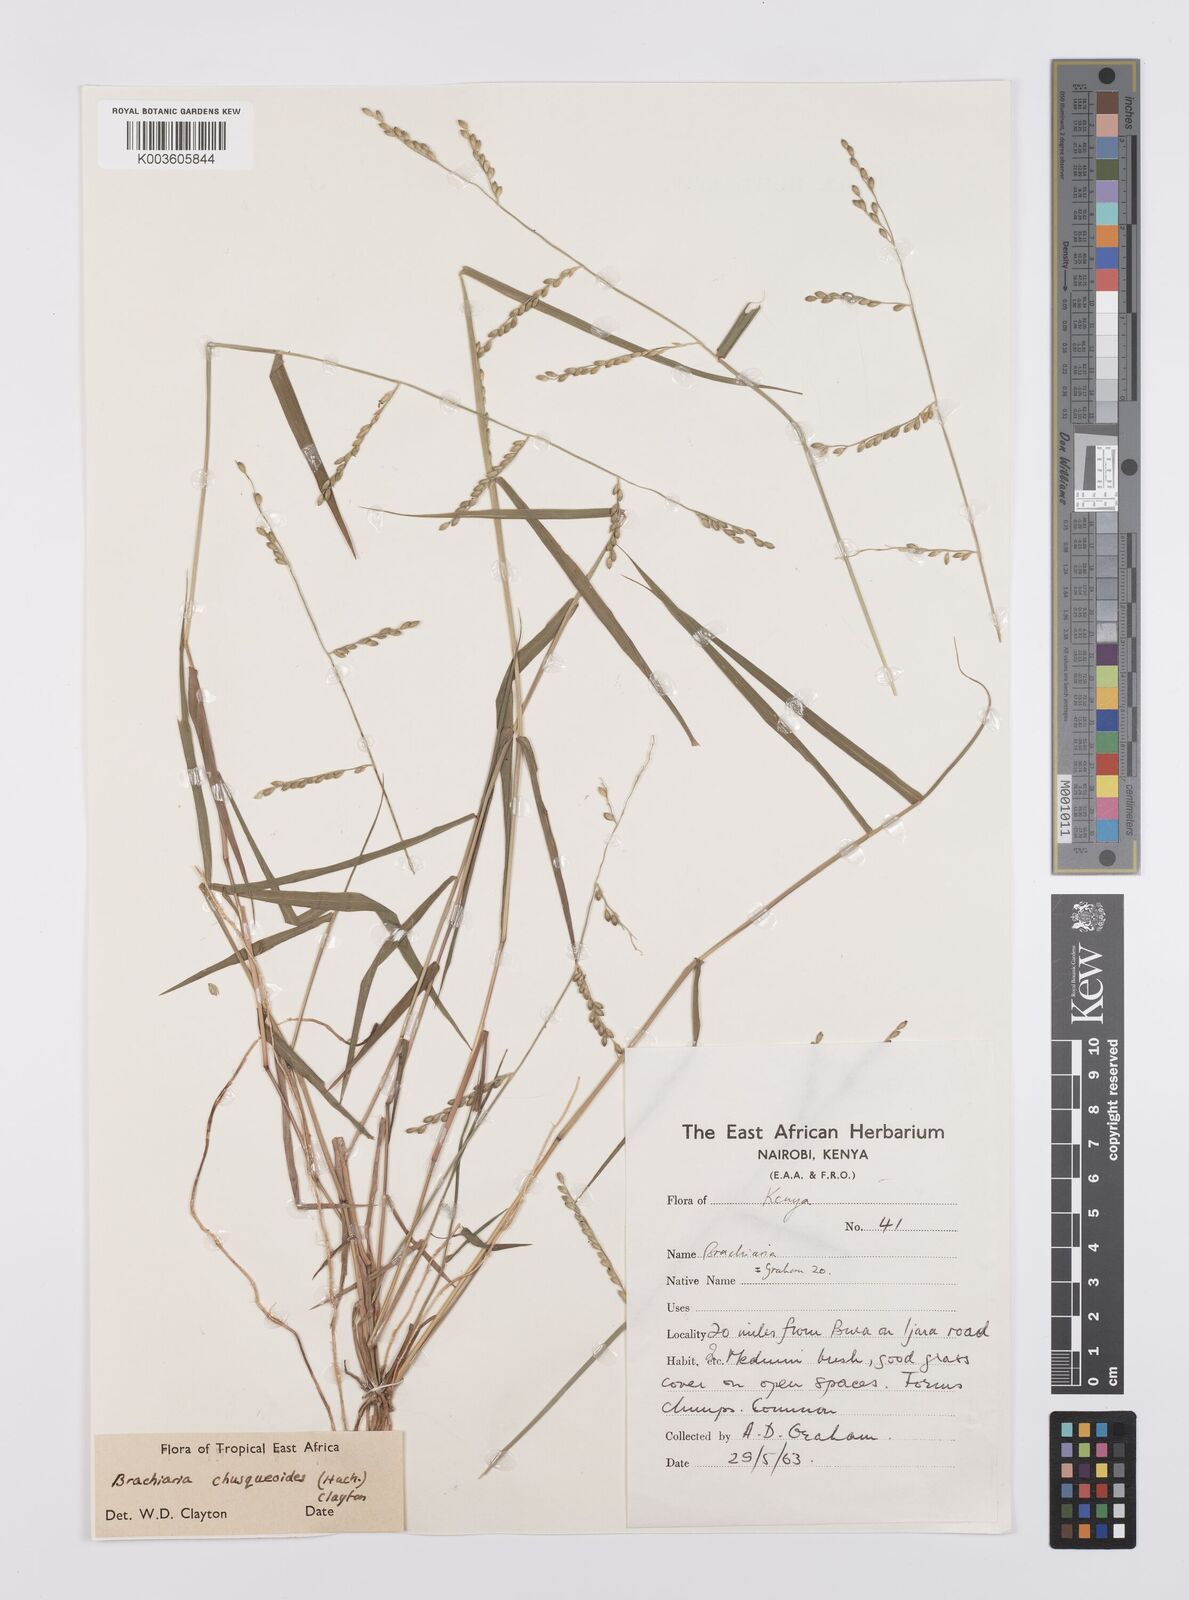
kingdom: Plantae
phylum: Tracheophyta
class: Liliopsida
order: Poales
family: Poaceae
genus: Urochloa
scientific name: Urochloa chusqueoides
